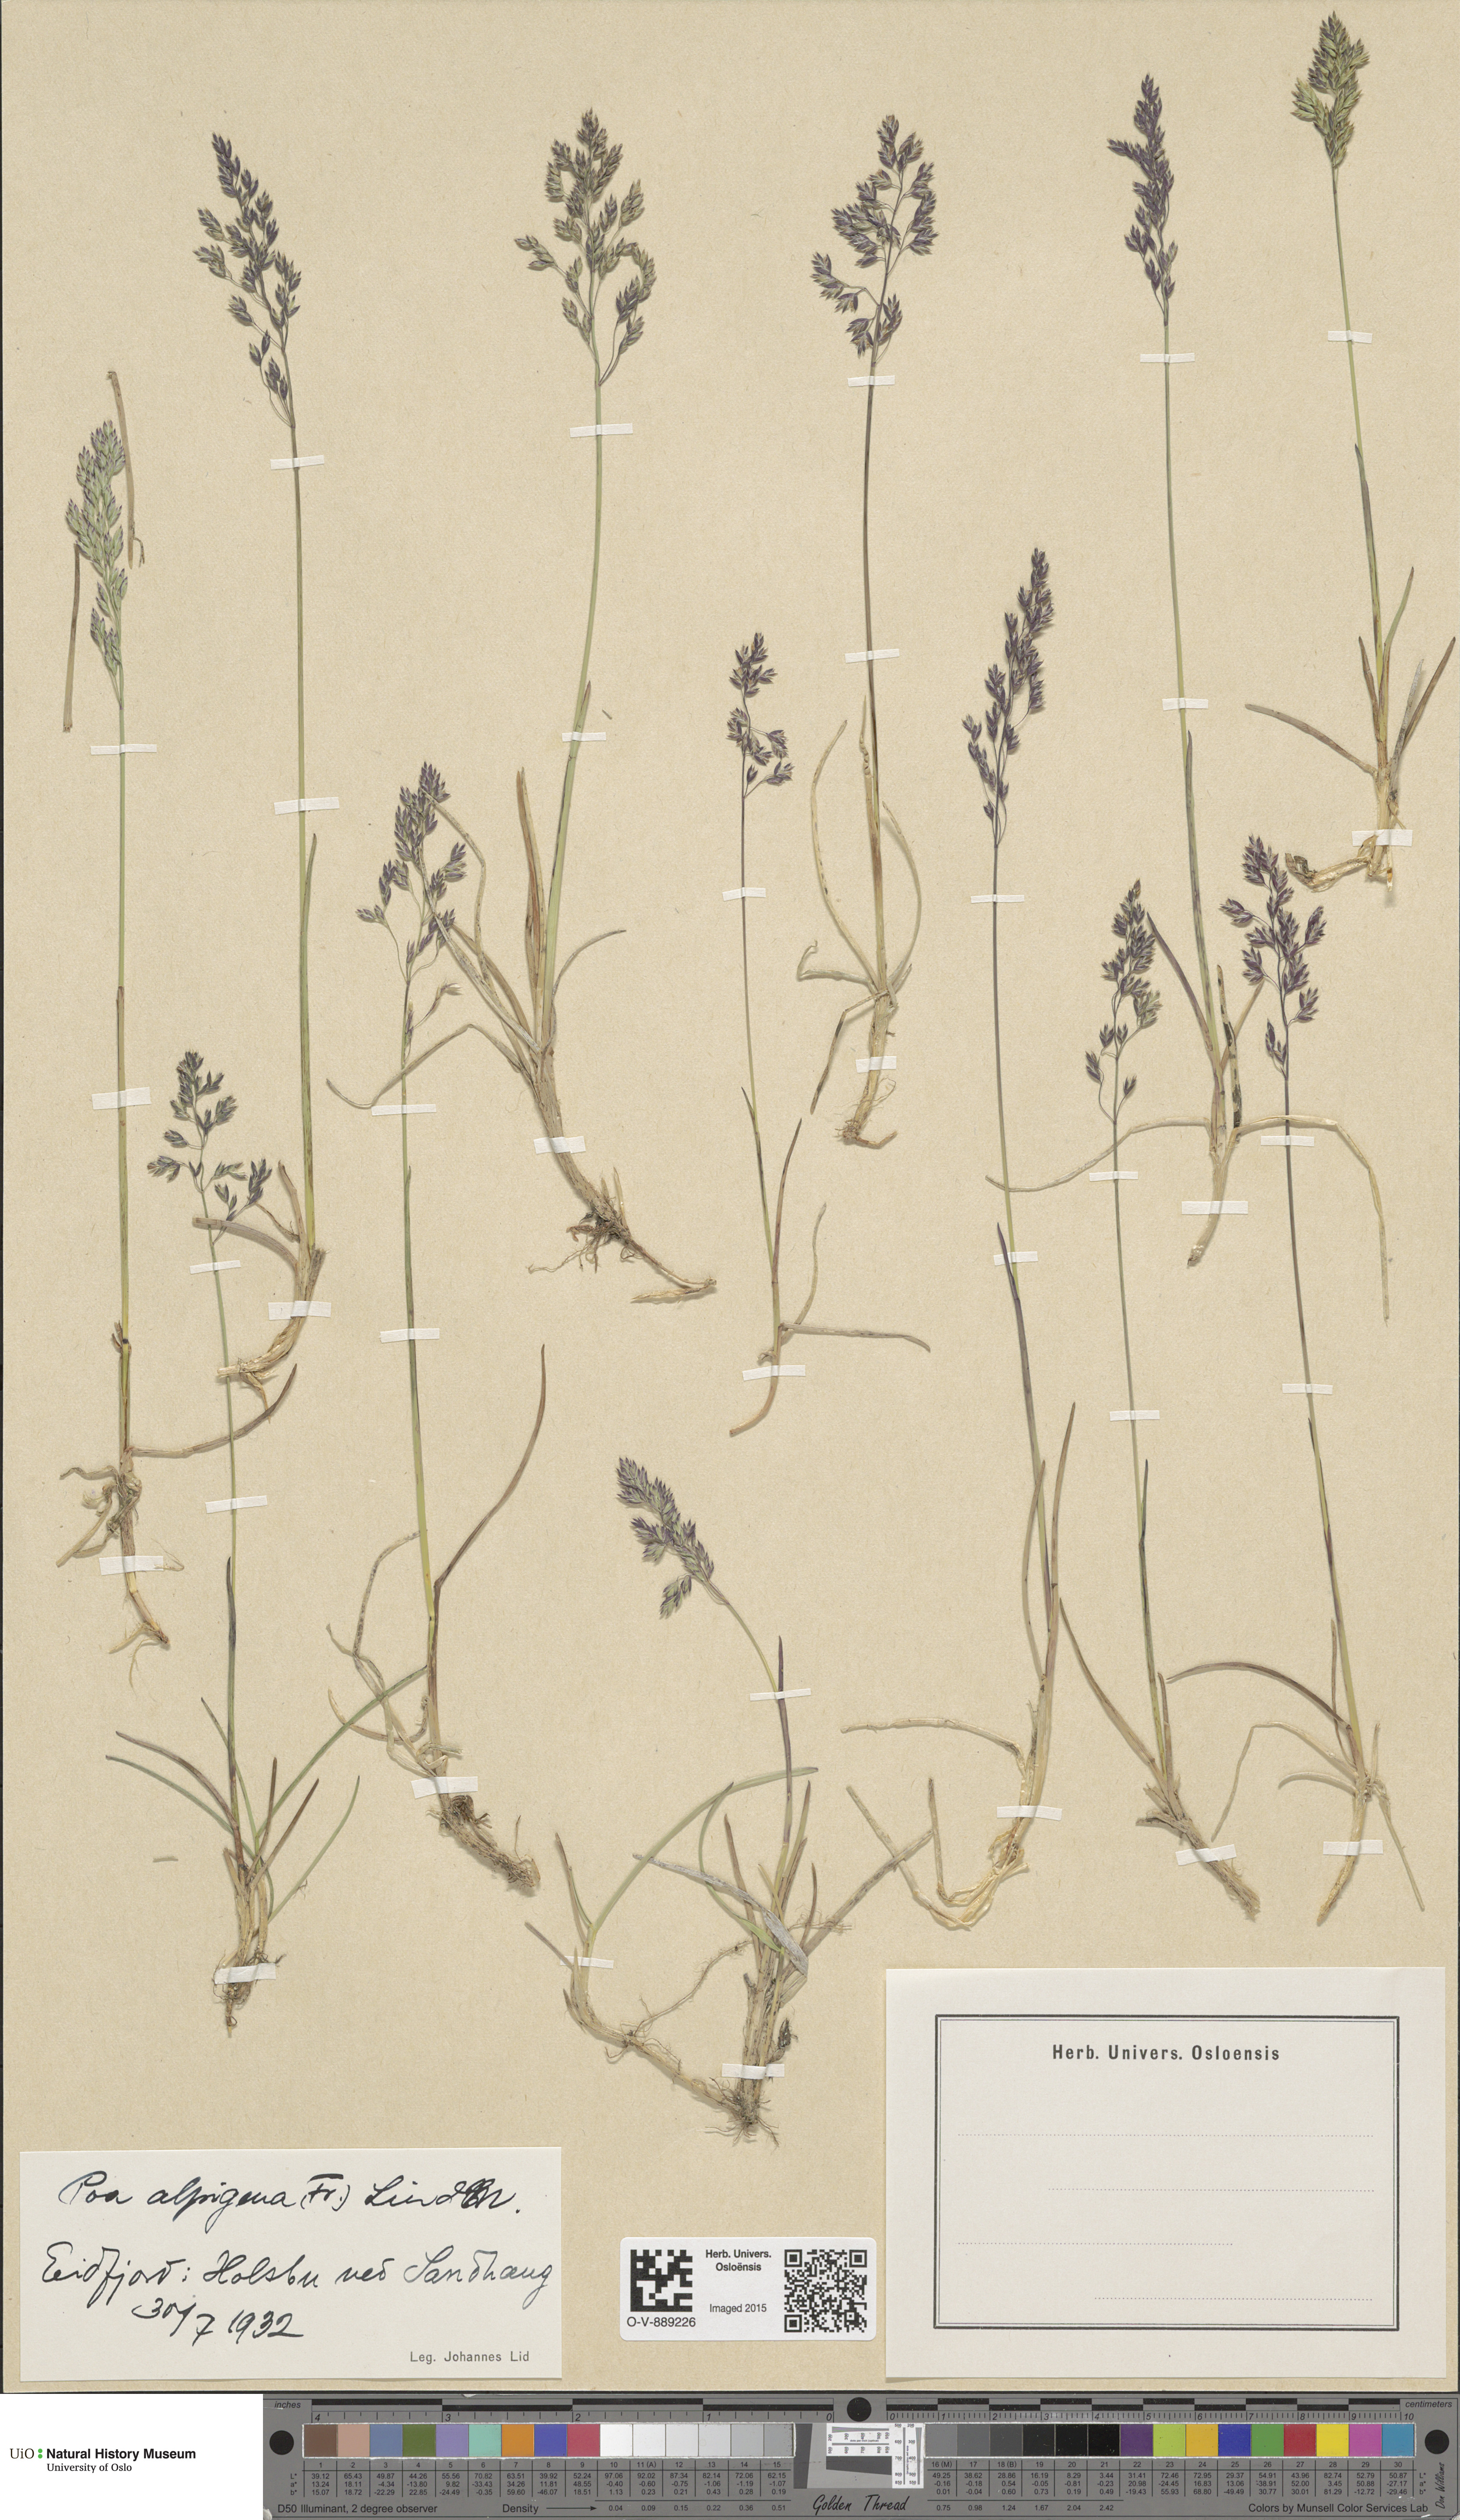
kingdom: Plantae
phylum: Tracheophyta
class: Liliopsida
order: Poales
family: Poaceae
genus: Poa
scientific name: Poa alpigena
